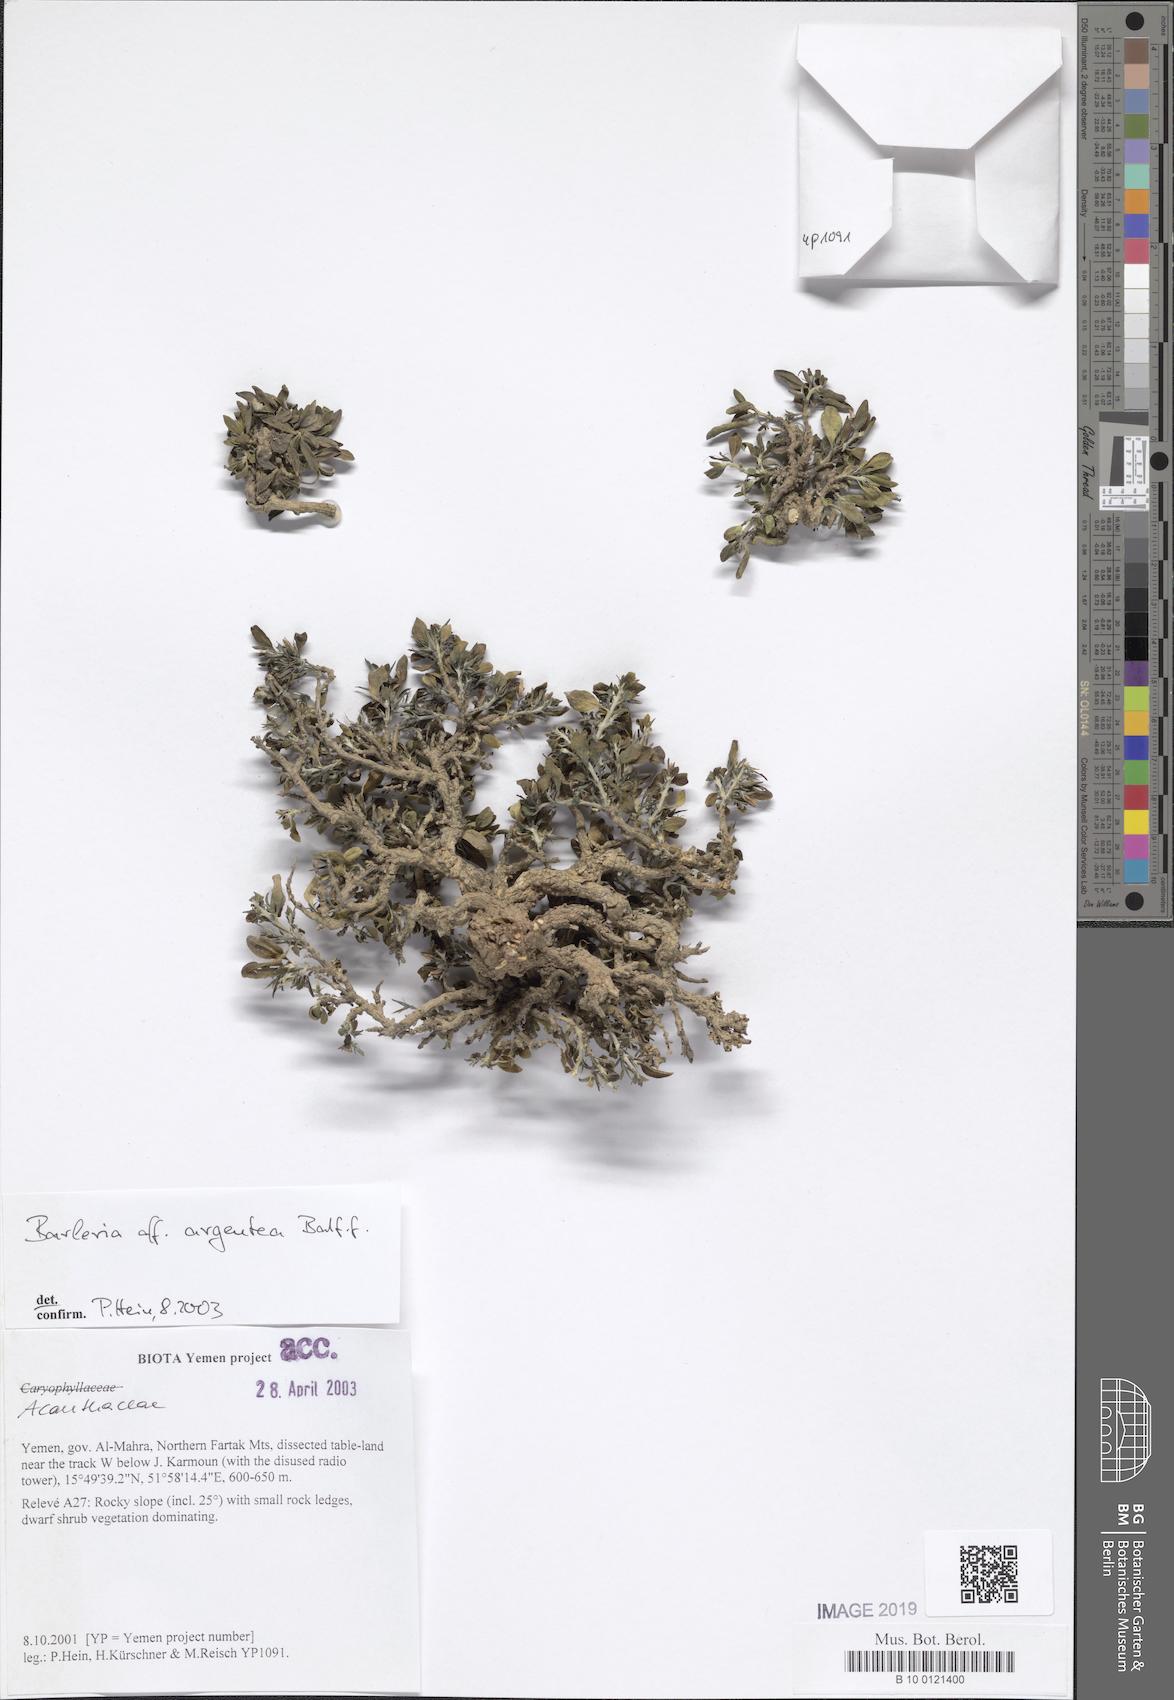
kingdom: Plantae
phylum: Tracheophyta
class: Magnoliopsida
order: Lamiales
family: Acanthaceae
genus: Barleria
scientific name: Barleria argentea
